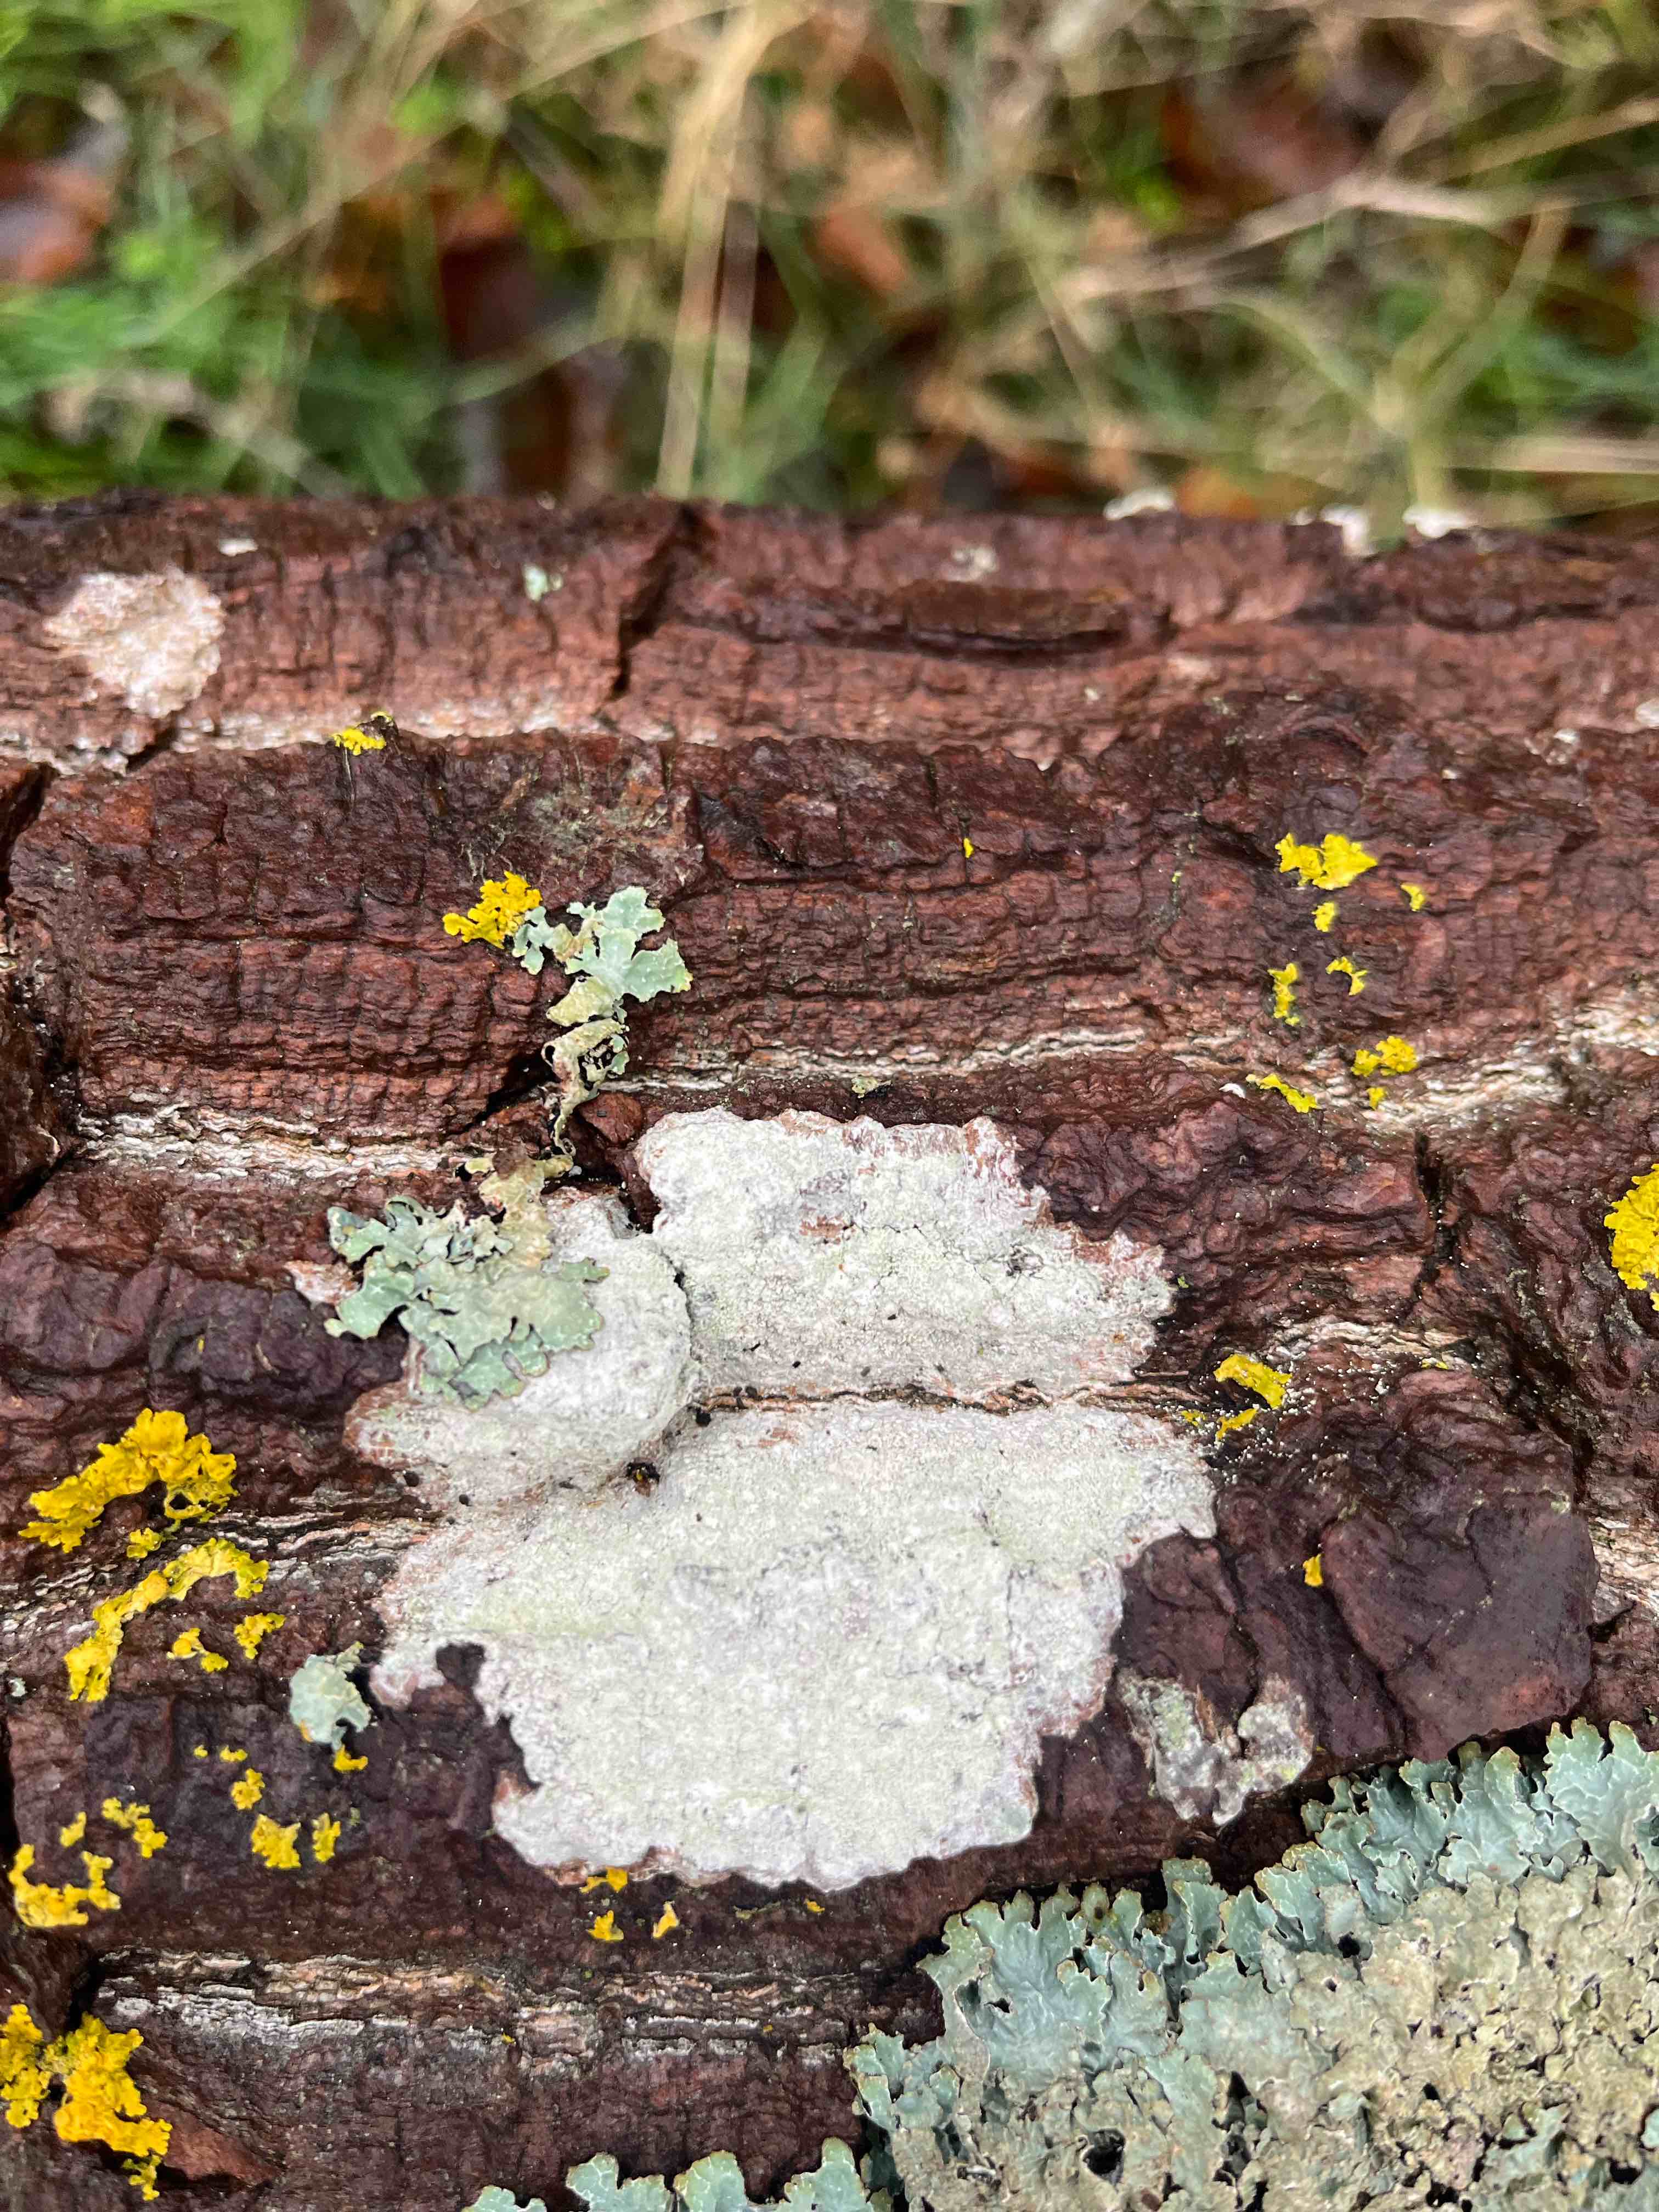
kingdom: Fungi
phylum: Ascomycota
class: Lecanoromycetes
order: Ostropales
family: Phlyctidaceae
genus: Phlyctis
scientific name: Phlyctis argena
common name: almindelig sølvlav
